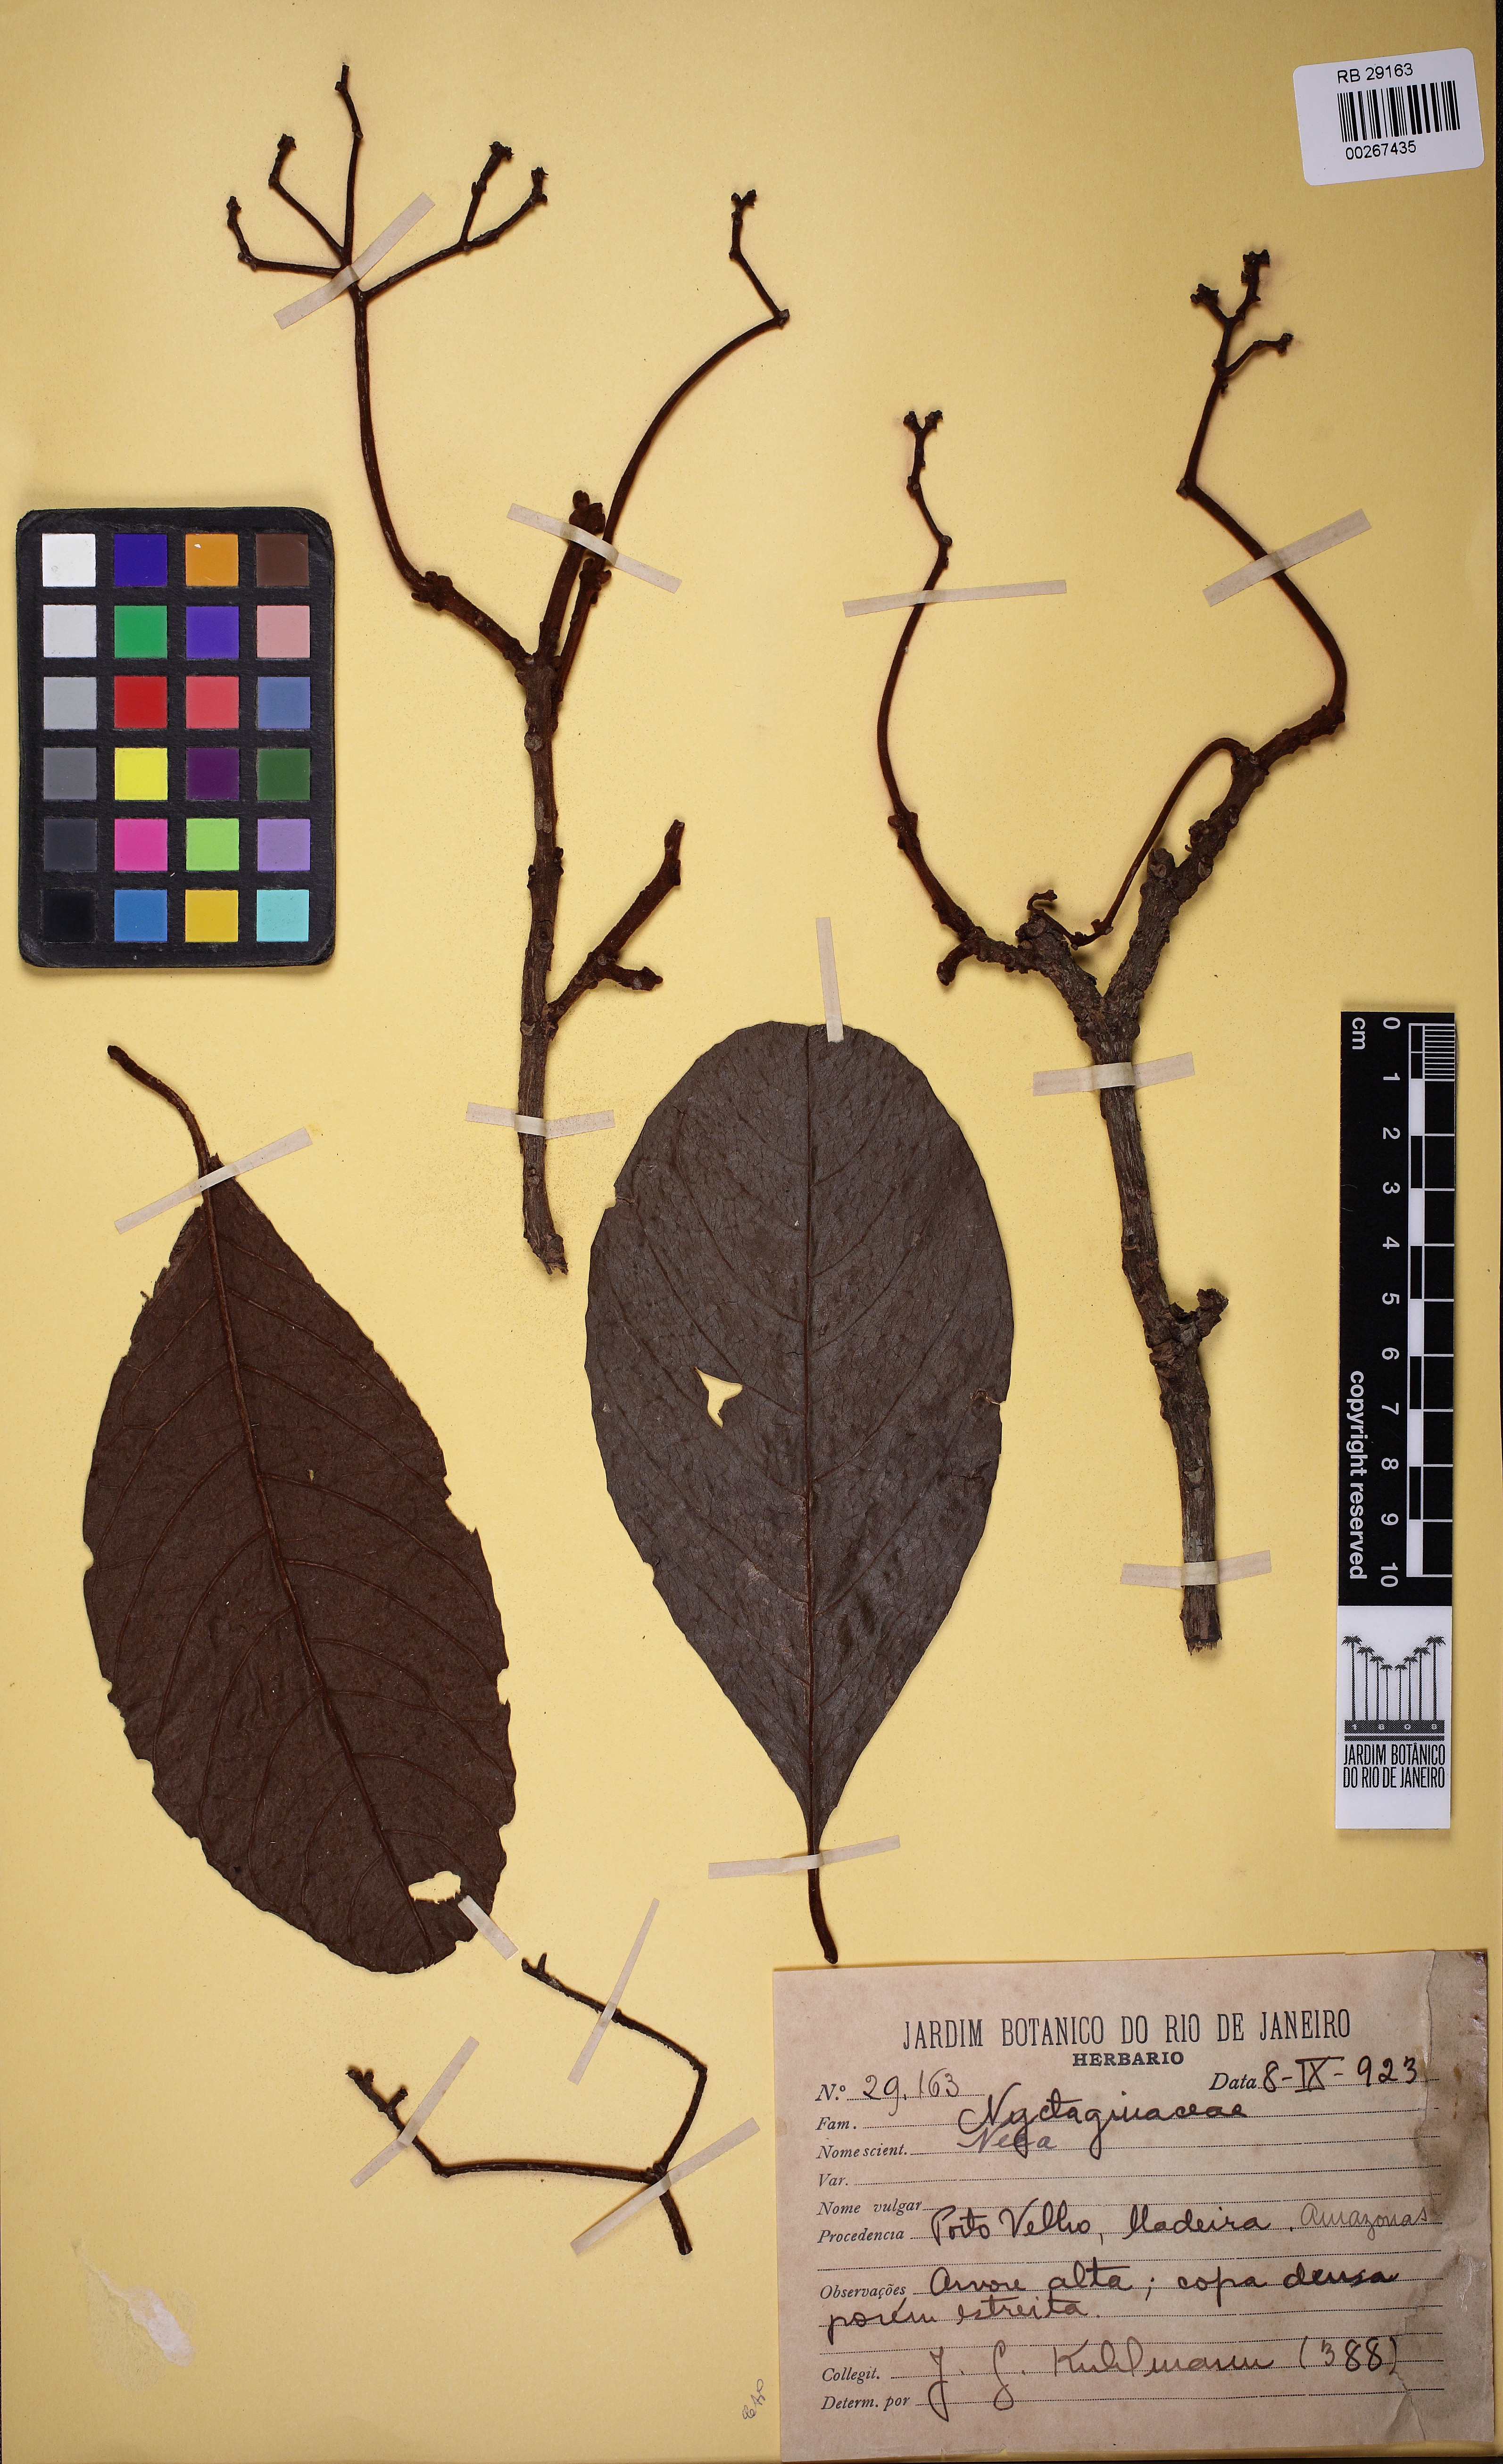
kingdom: Plantae
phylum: Tracheophyta
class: Magnoliopsida
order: Caryophyllales
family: Nyctaginaceae
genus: Neea
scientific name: Neea madeirana
